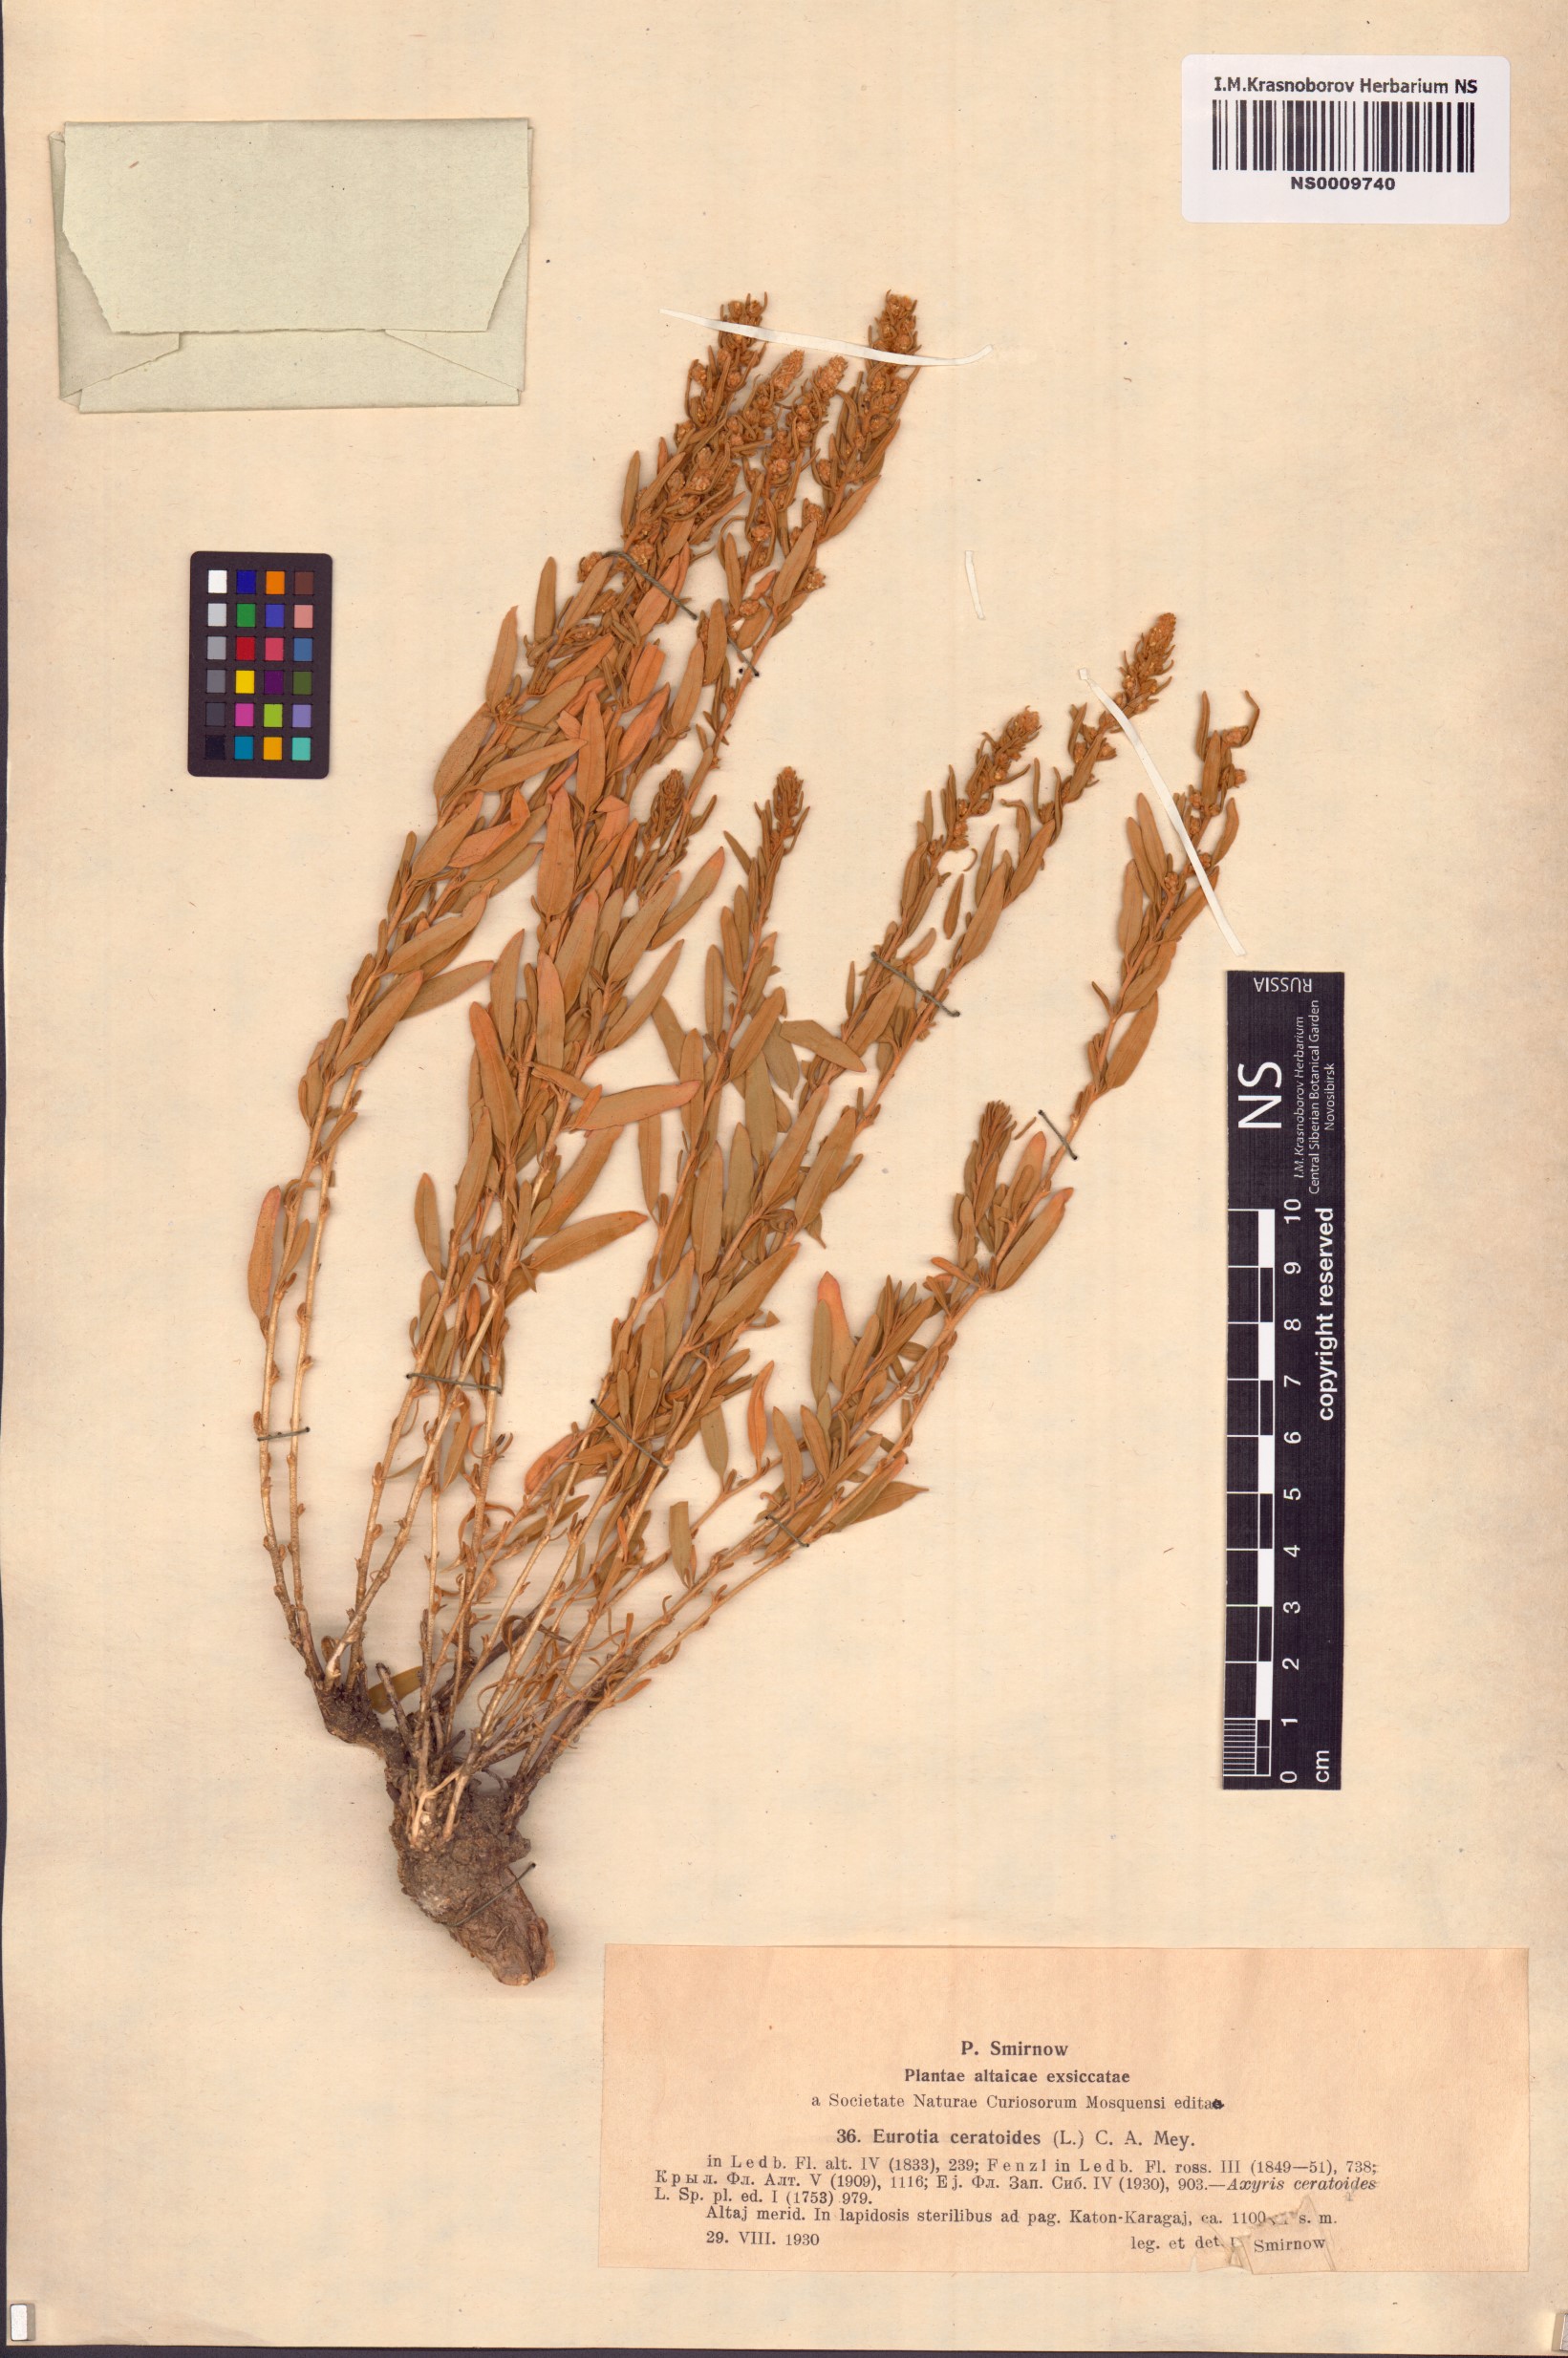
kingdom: Plantae
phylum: Tracheophyta
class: Magnoliopsida
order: Caryophyllales
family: Amaranthaceae
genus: Krascheninnikovia
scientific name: Krascheninnikovia ceratoides
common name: Pamirian winterfat
